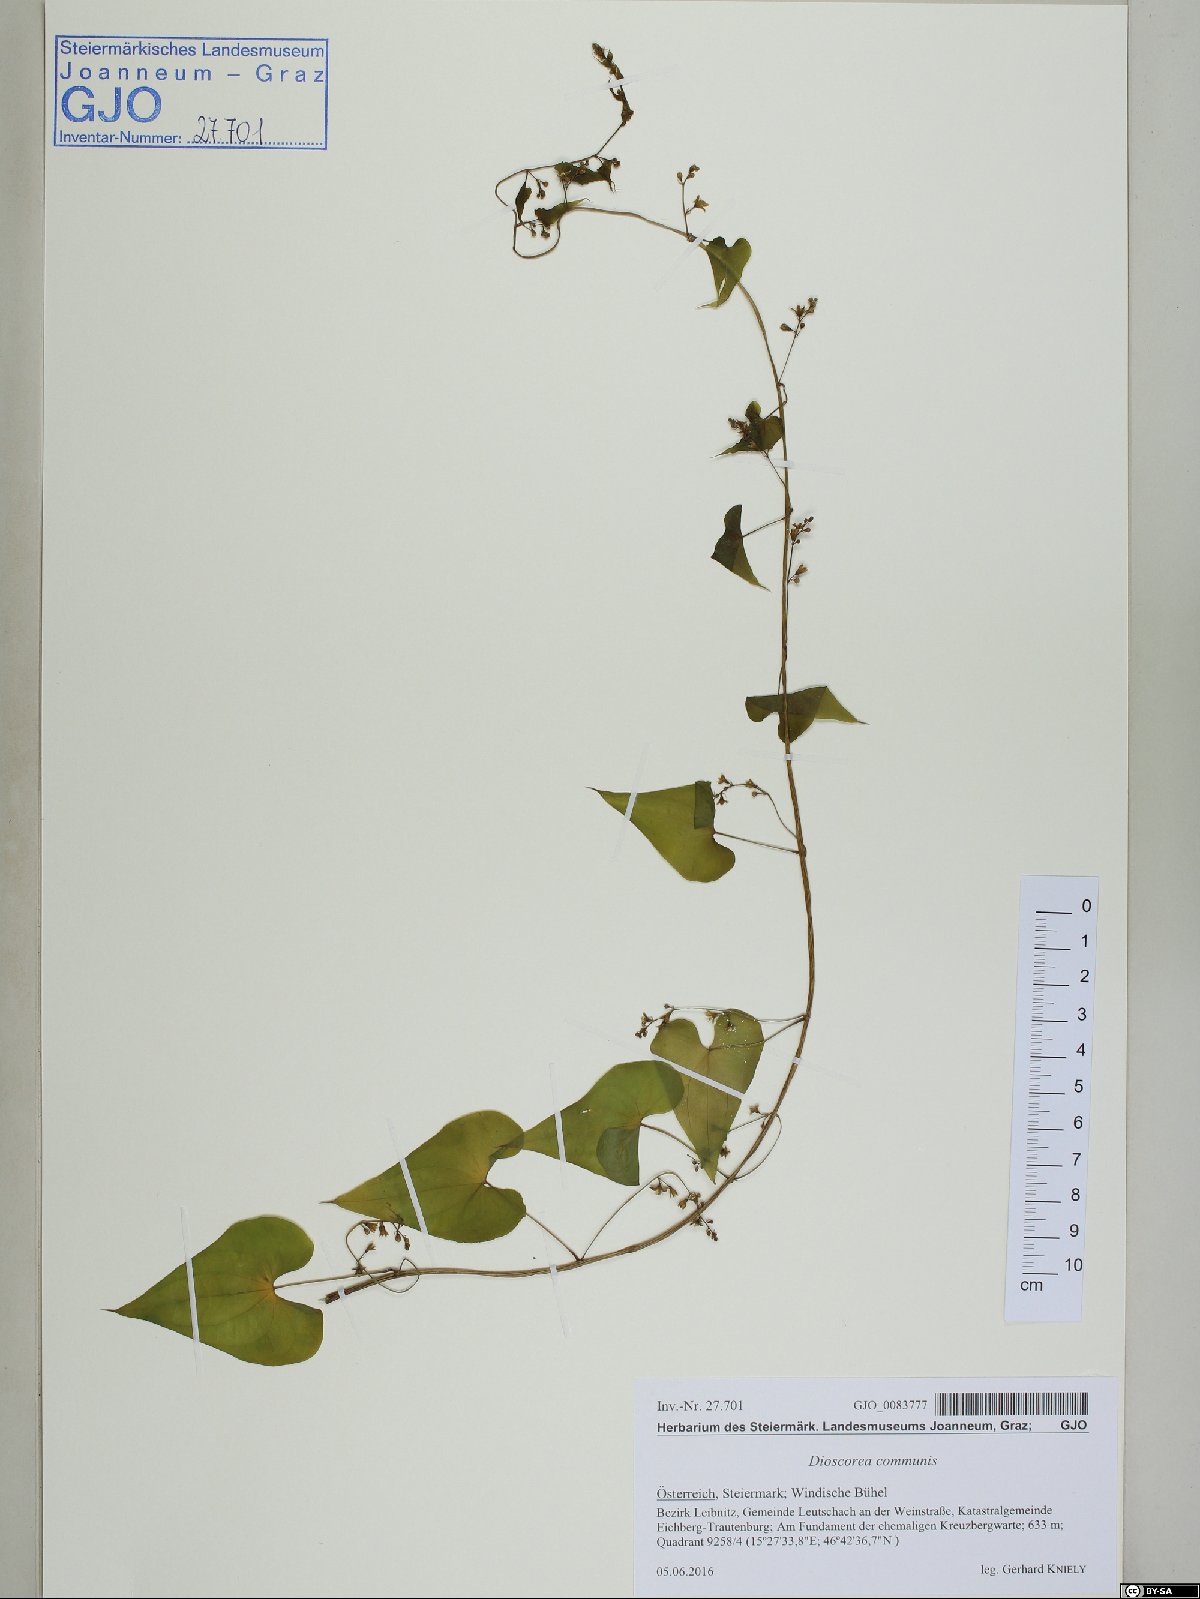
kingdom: Plantae
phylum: Tracheophyta
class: Liliopsida
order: Dioscoreales
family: Dioscoreaceae
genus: Dioscorea
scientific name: Dioscorea communis
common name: Black-bindweed
